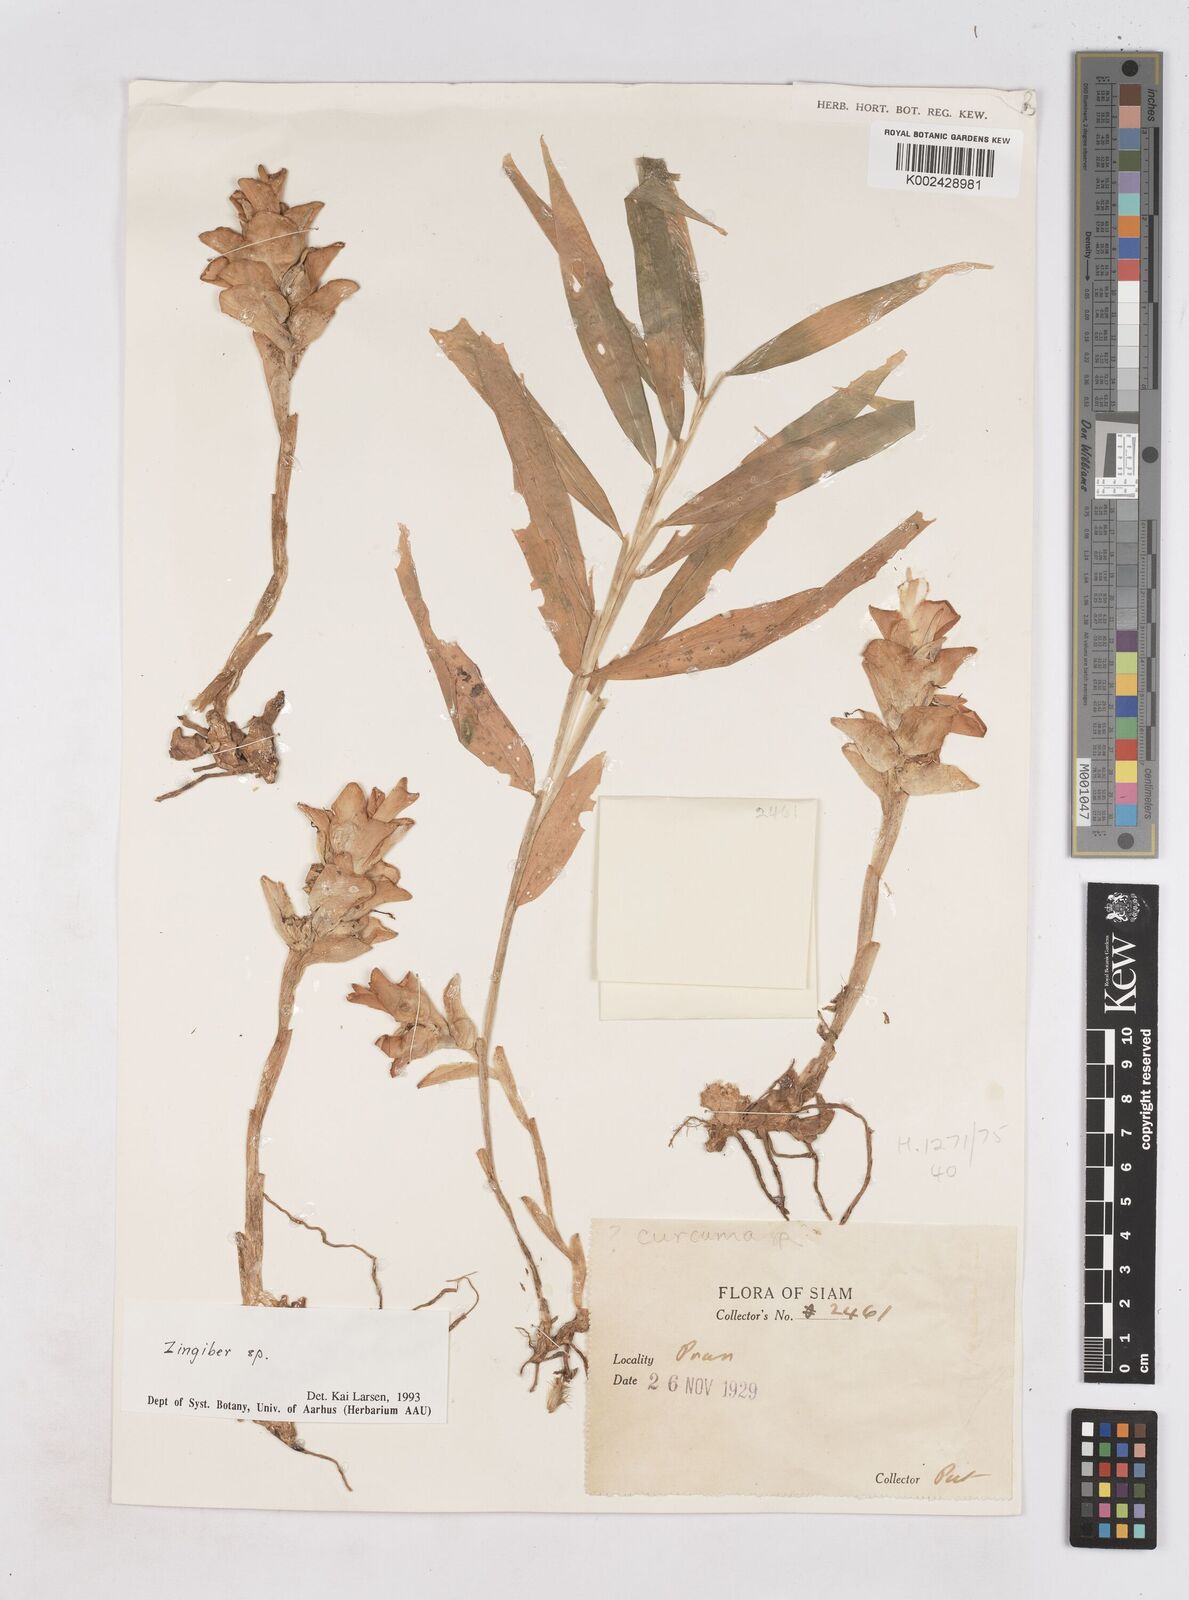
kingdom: Plantae
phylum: Tracheophyta
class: Liliopsida
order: Zingiberales
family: Zingiberaceae
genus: Zingiber
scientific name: Zingiber
